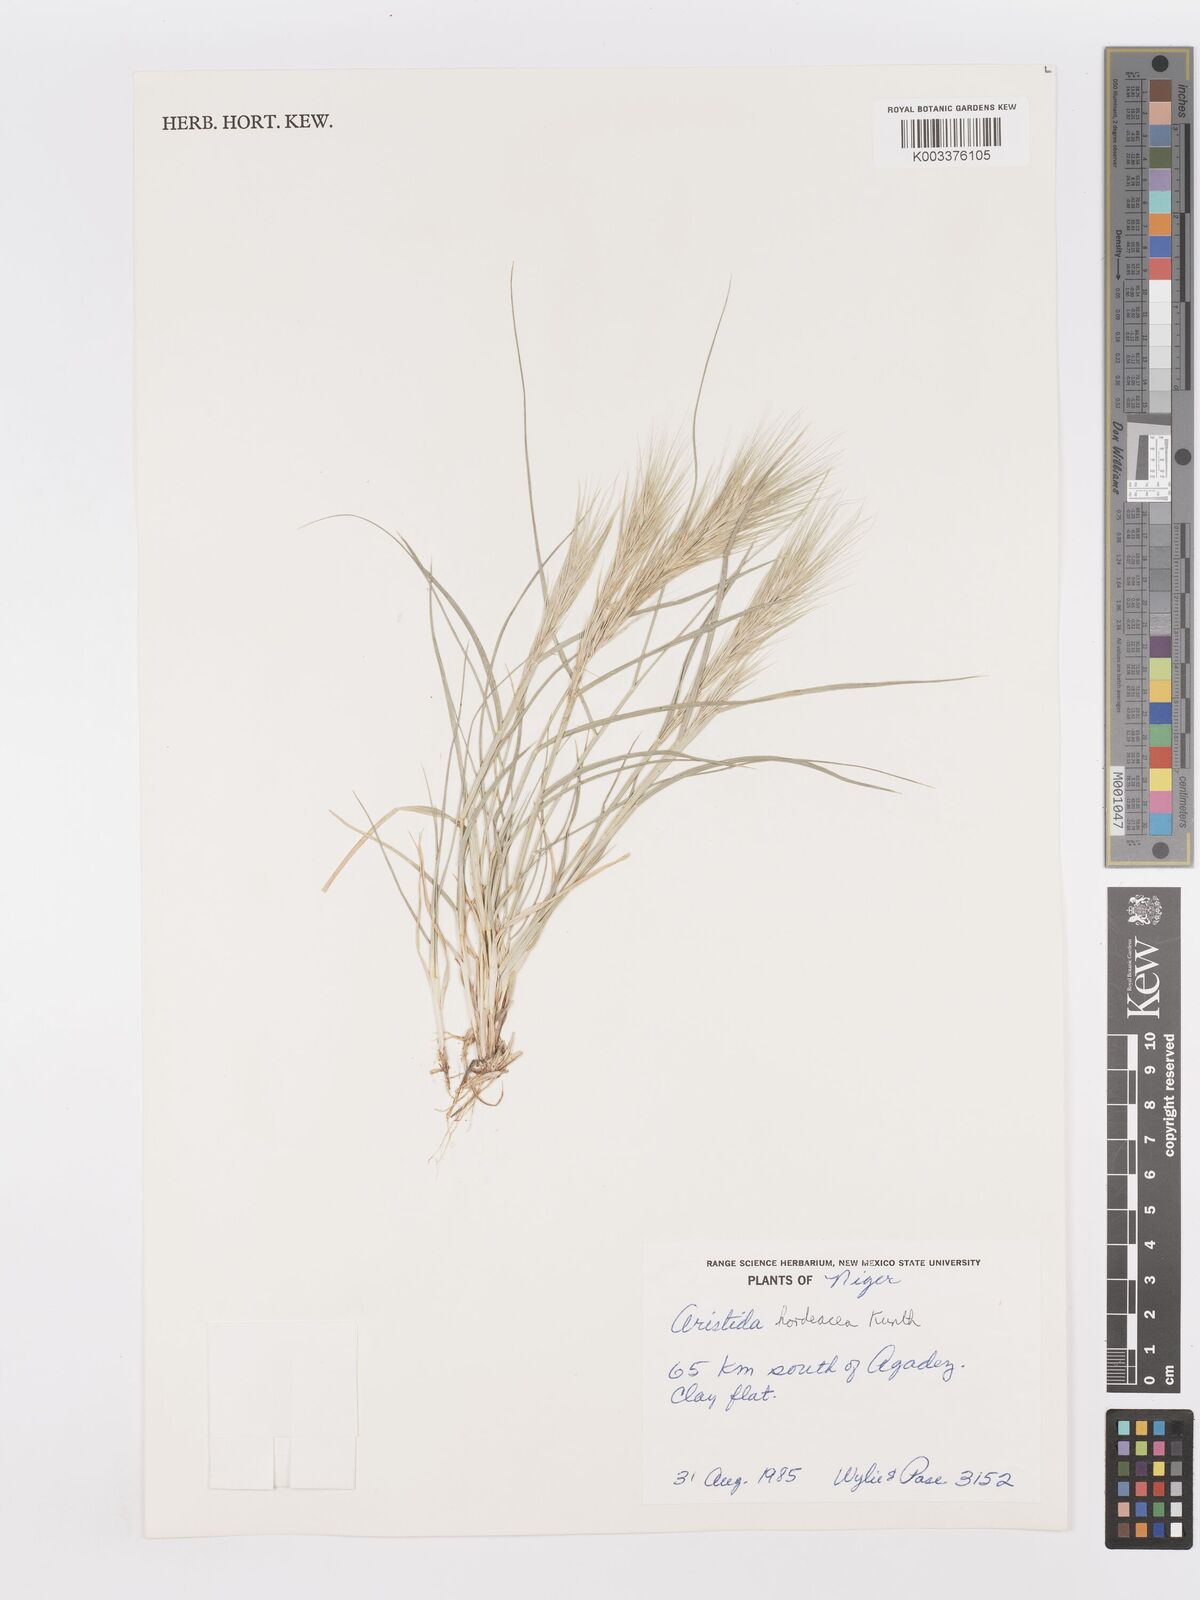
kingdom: Plantae
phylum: Tracheophyta
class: Liliopsida
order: Poales
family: Poaceae
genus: Aristida
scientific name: Aristida hordeacea
